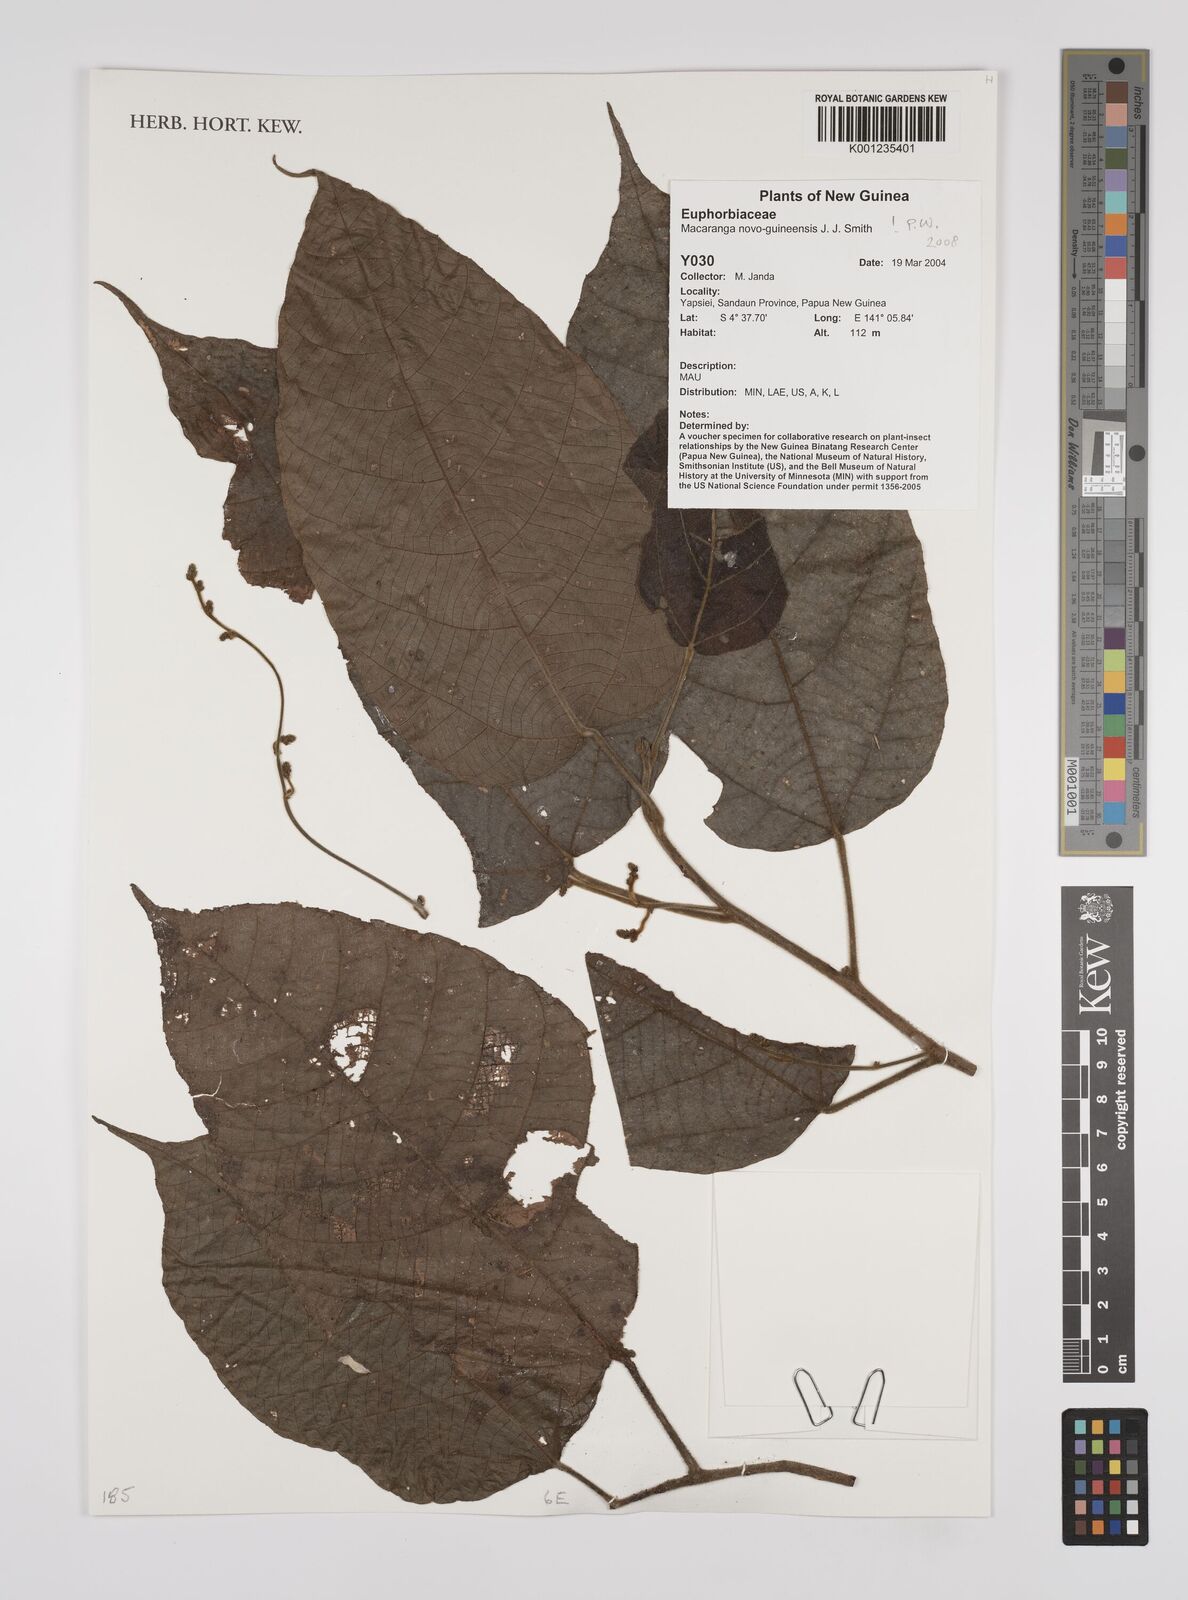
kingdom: Plantae
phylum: Tracheophyta
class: Magnoliopsida
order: Malpighiales
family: Euphorbiaceae
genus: Macaranga
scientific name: Macaranga novoguineensis
